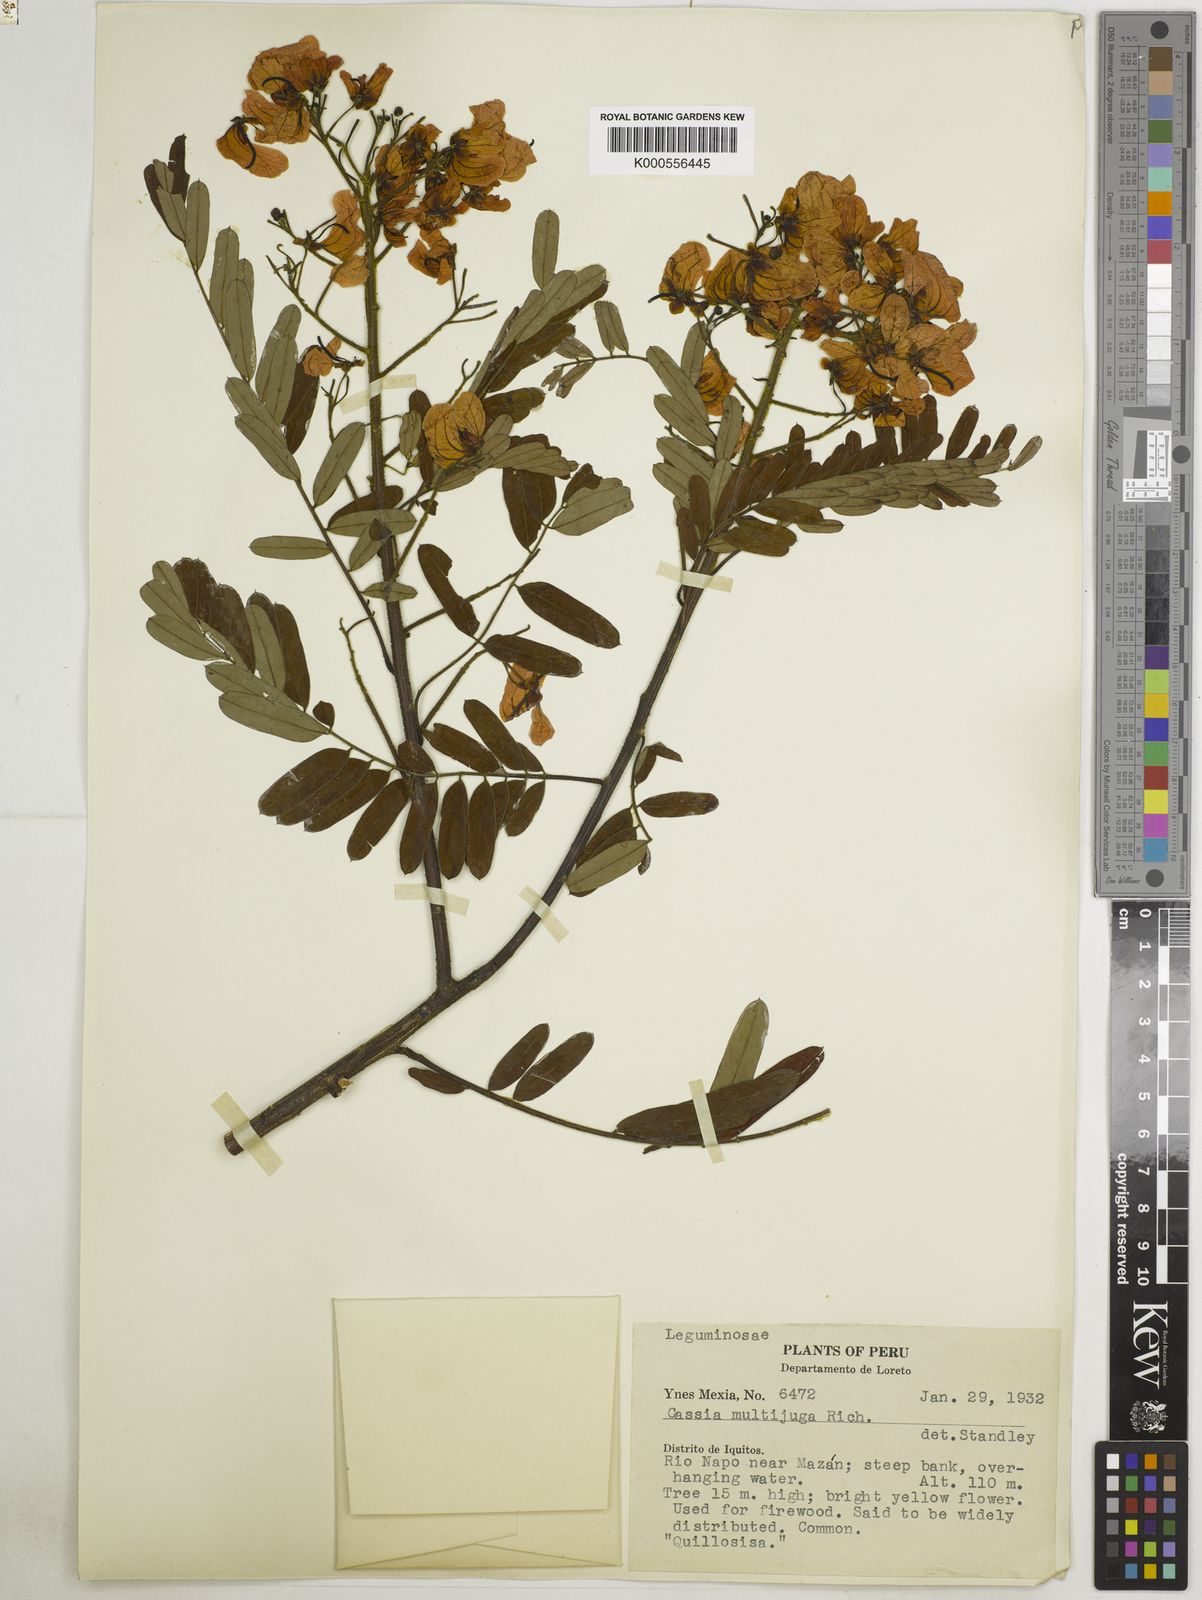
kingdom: Plantae
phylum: Tracheophyta
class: Magnoliopsida
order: Fabales
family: Fabaceae
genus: Senna
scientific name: Senna multijuga
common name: False sicklepod
